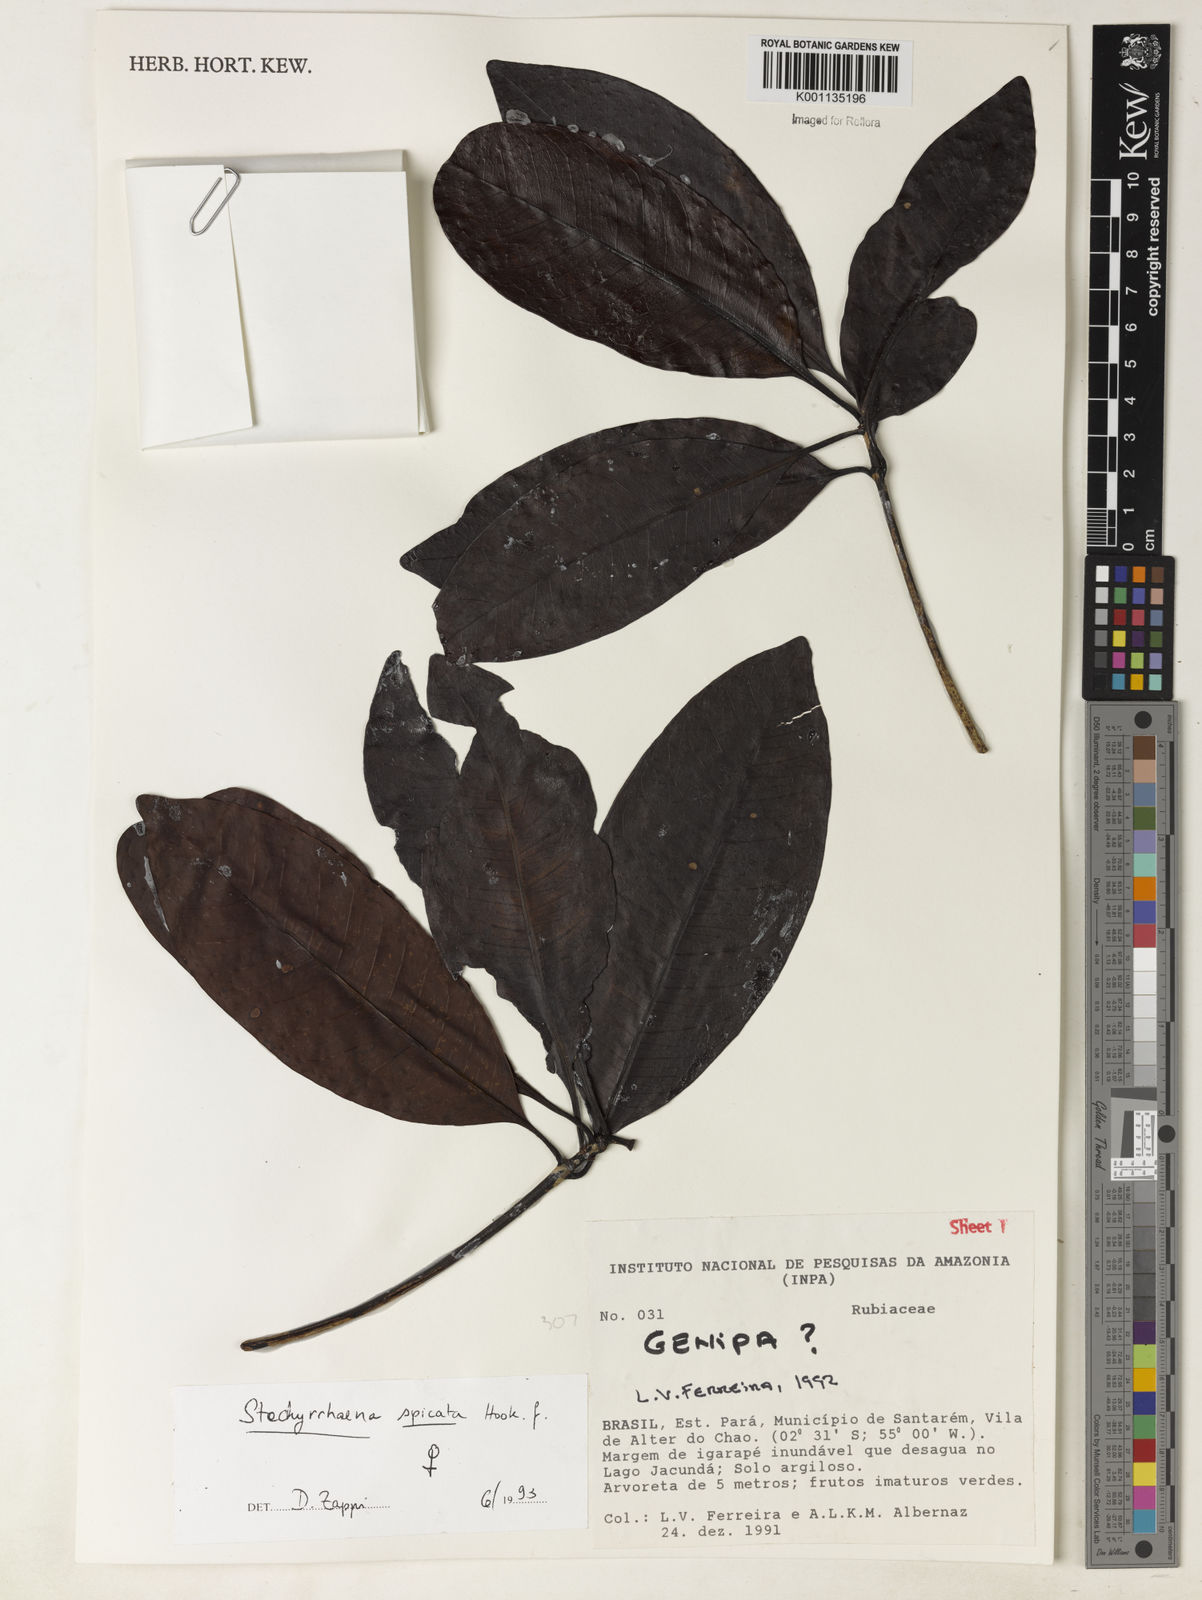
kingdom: Plantae
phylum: Tracheophyta
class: Magnoliopsida
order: Gentianales
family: Rubiaceae
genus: Stachyarrhena
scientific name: Stachyarrhena spicata
